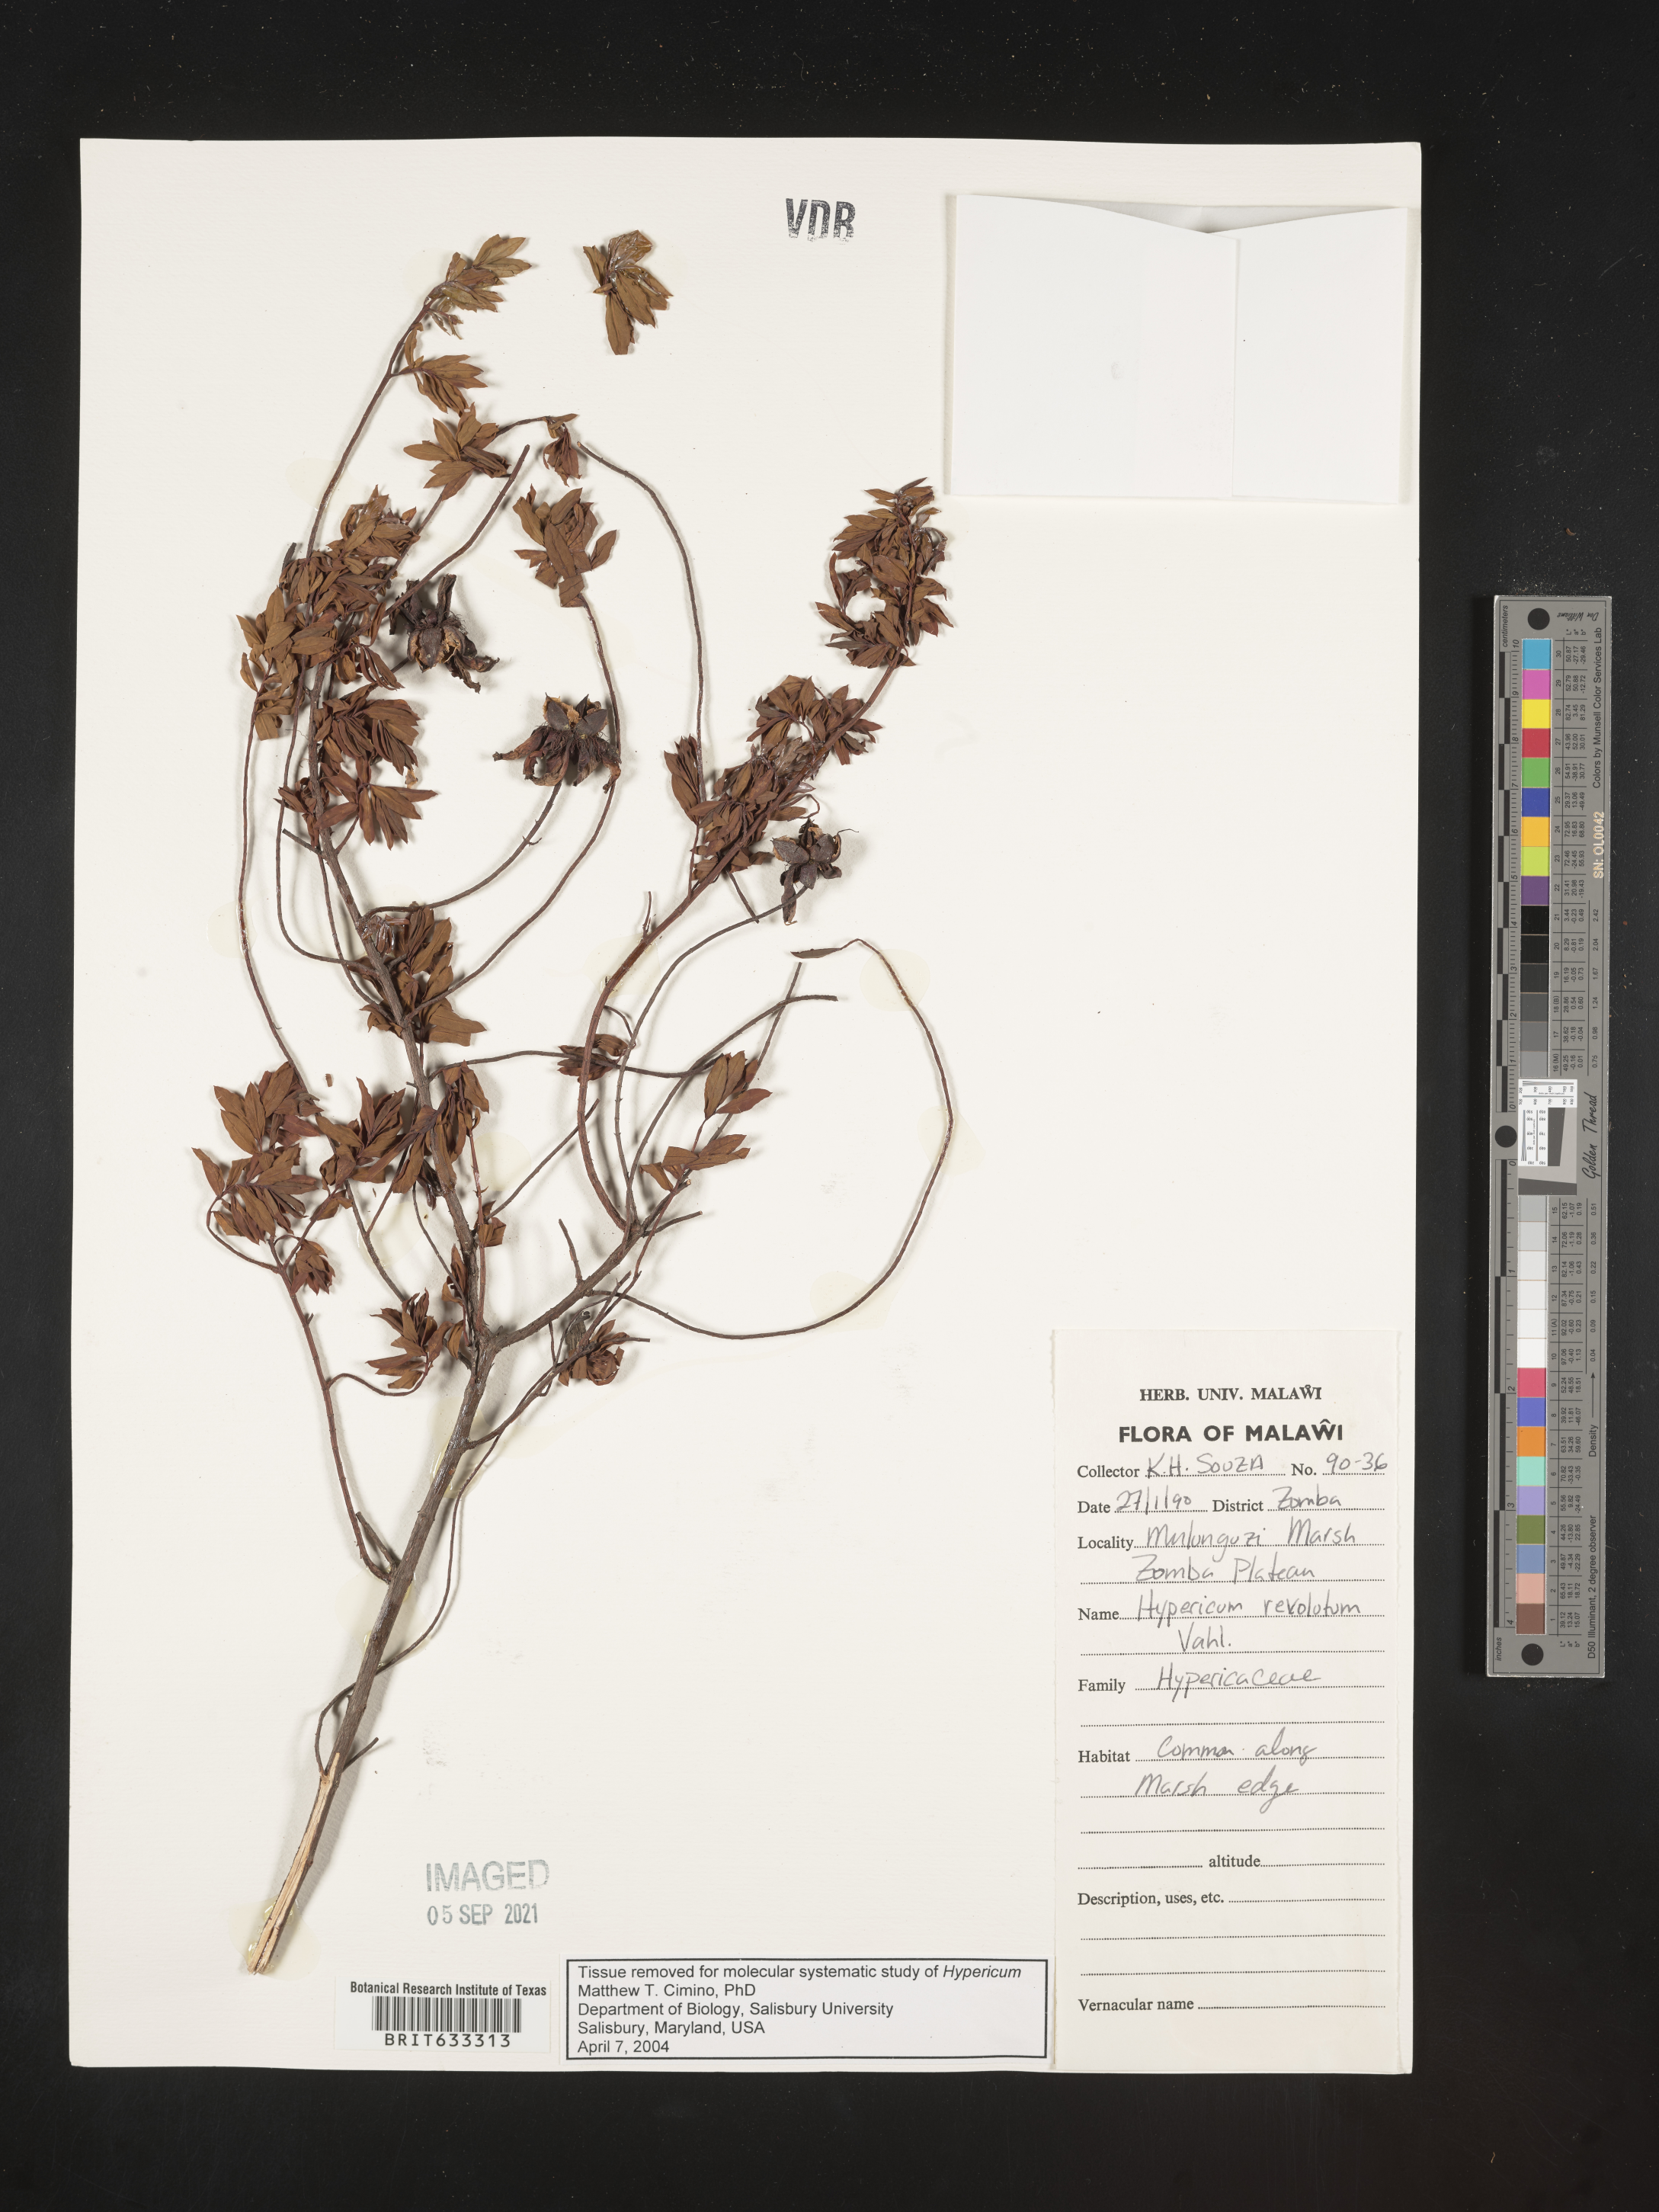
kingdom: Plantae
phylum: Tracheophyta
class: Magnoliopsida
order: Malpighiales
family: Hypericaceae
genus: Hypericum
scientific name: Hypericum
